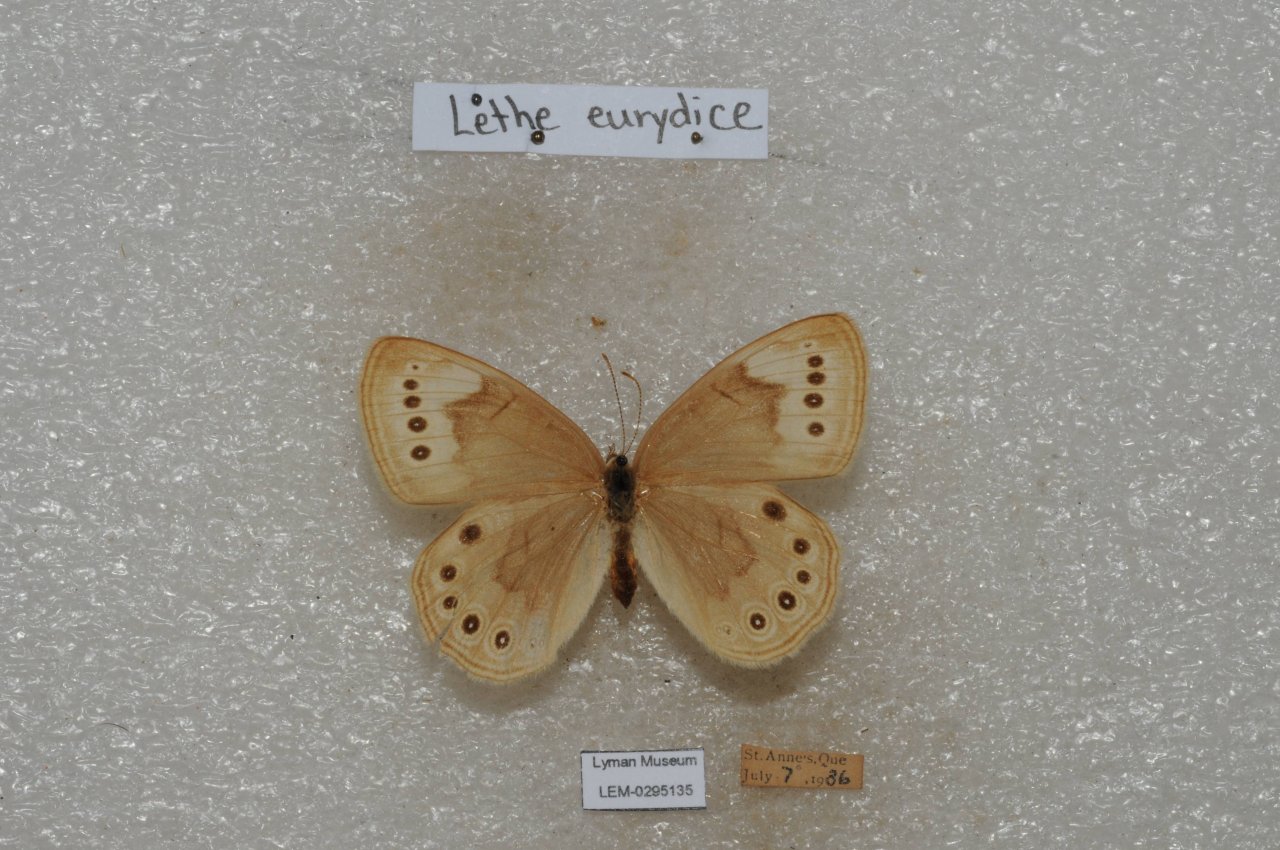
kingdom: Animalia
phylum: Arthropoda
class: Insecta
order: Lepidoptera
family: Nymphalidae
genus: Lethe
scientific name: Lethe eurydice
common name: Eyed Brown
